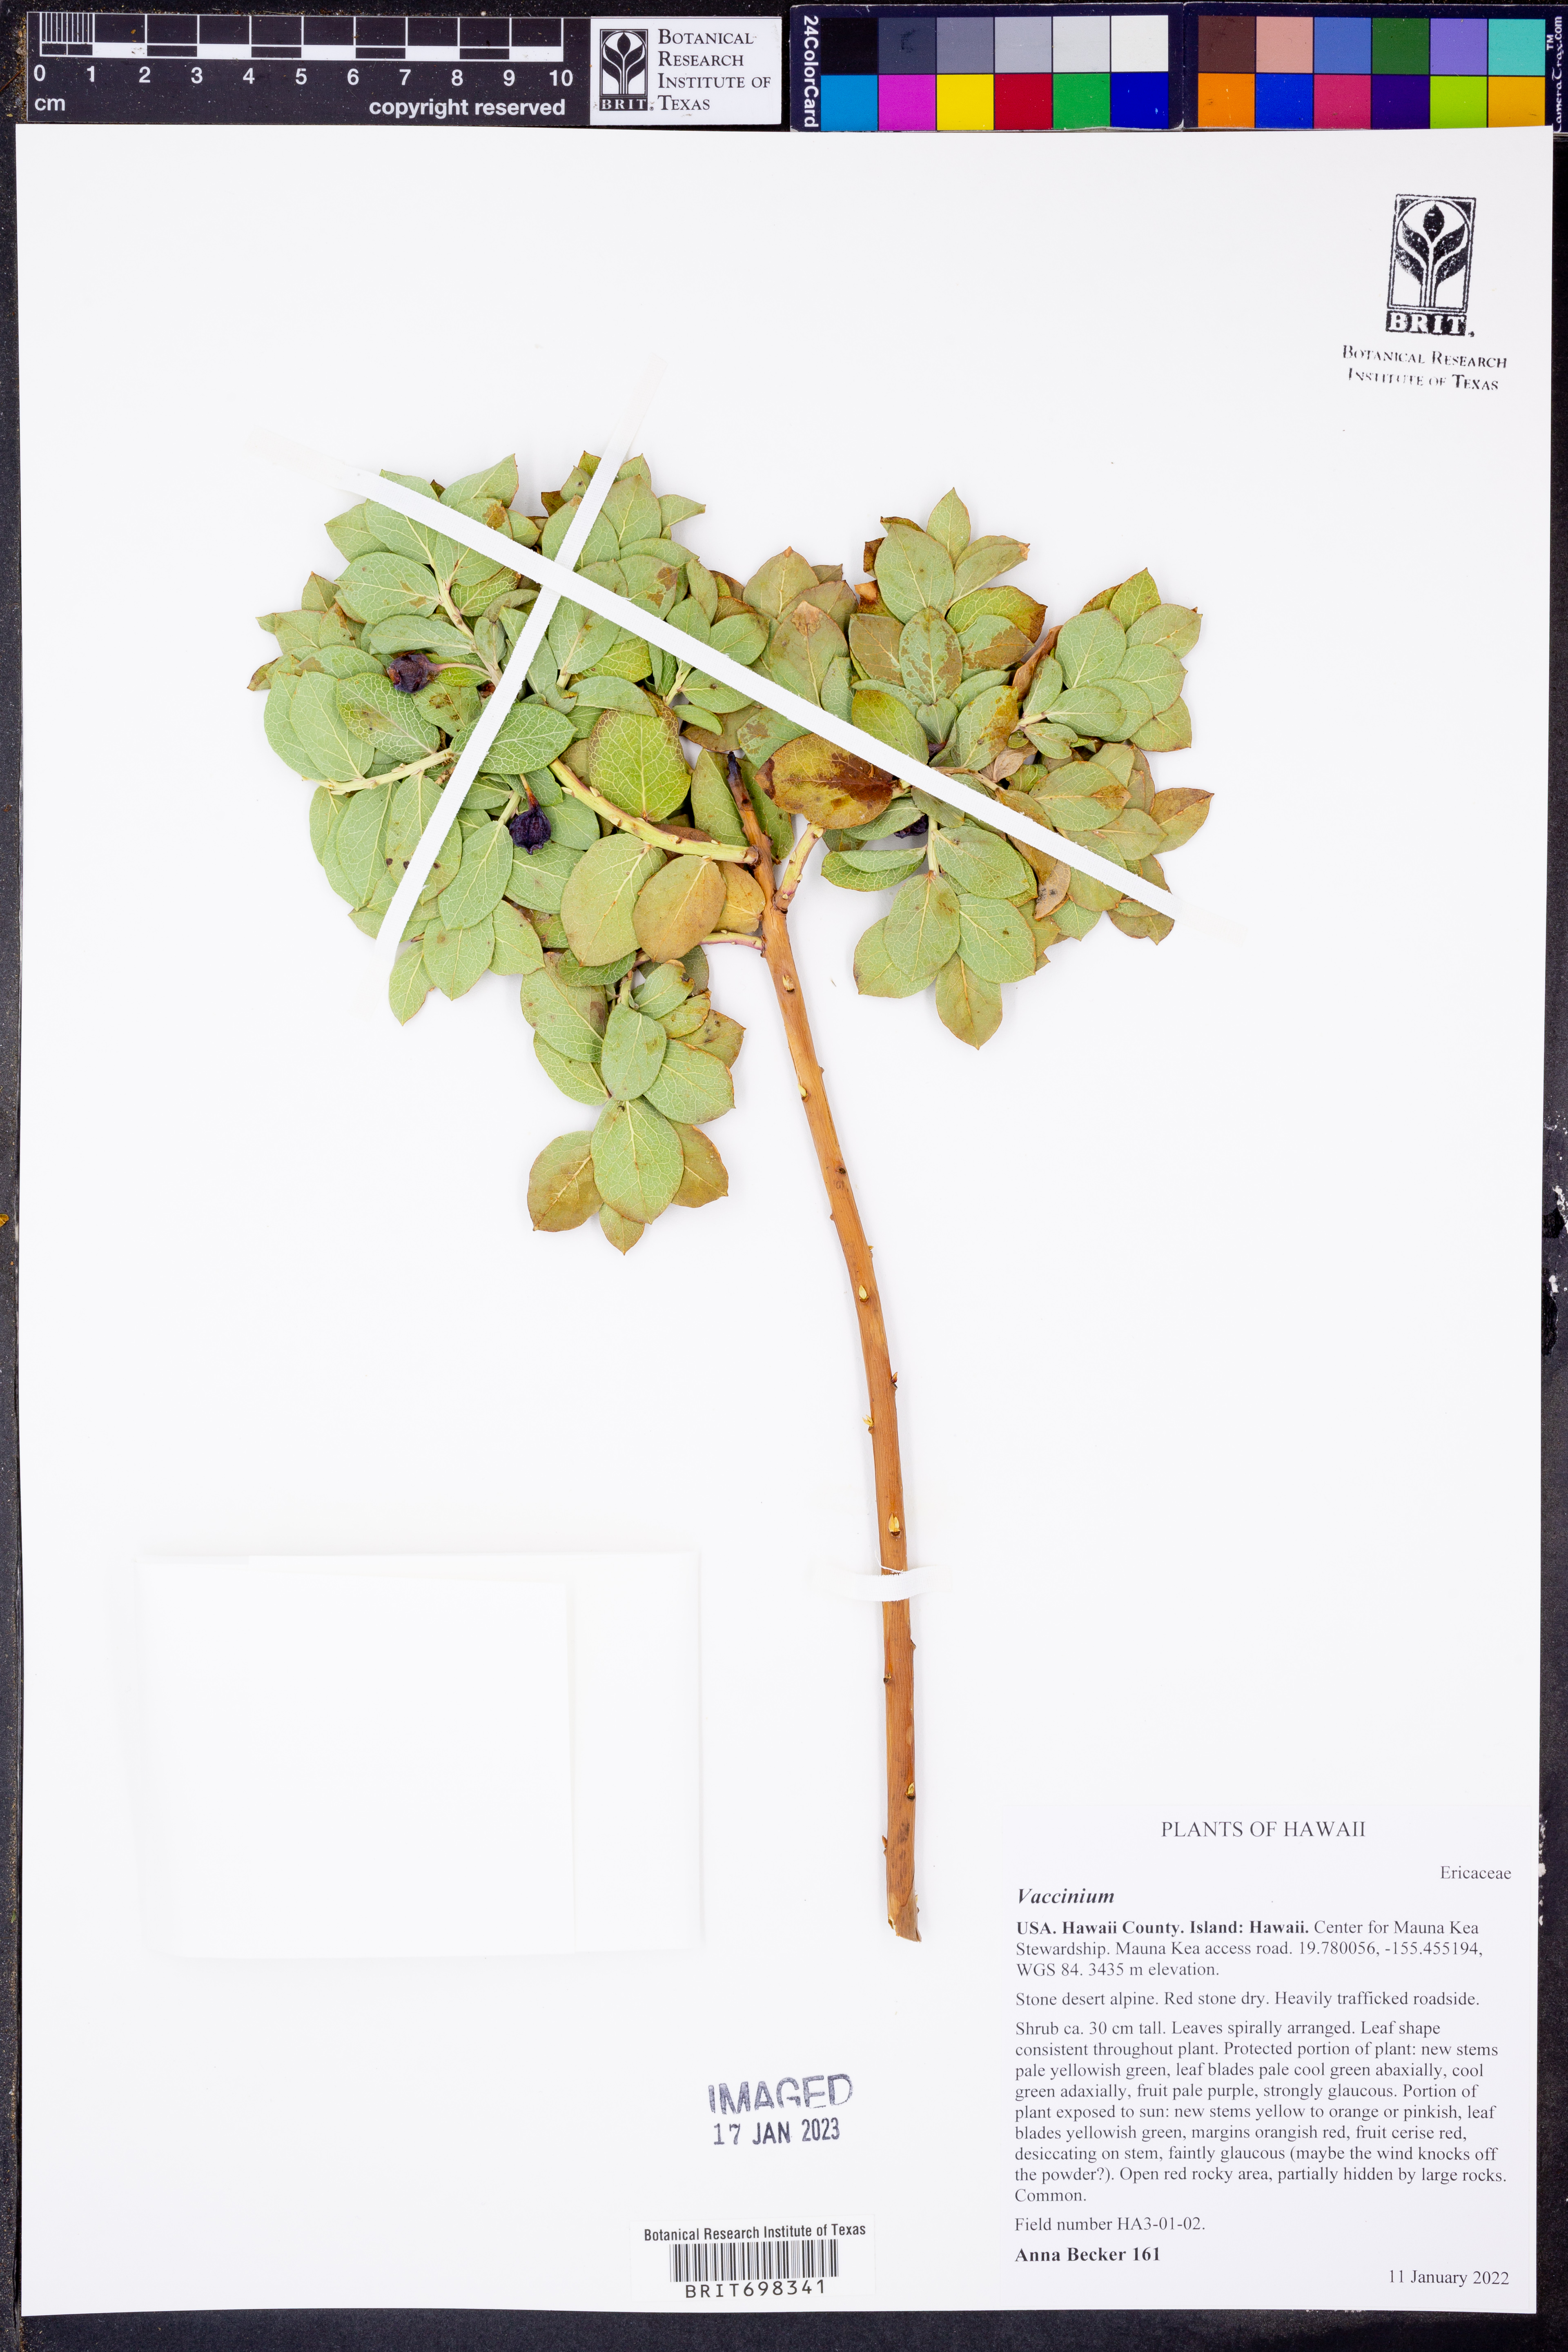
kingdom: Plantae
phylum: Tracheophyta
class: Magnoliopsida
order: Ericales
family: Ericaceae
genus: Vaccinium
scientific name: Vaccinium
